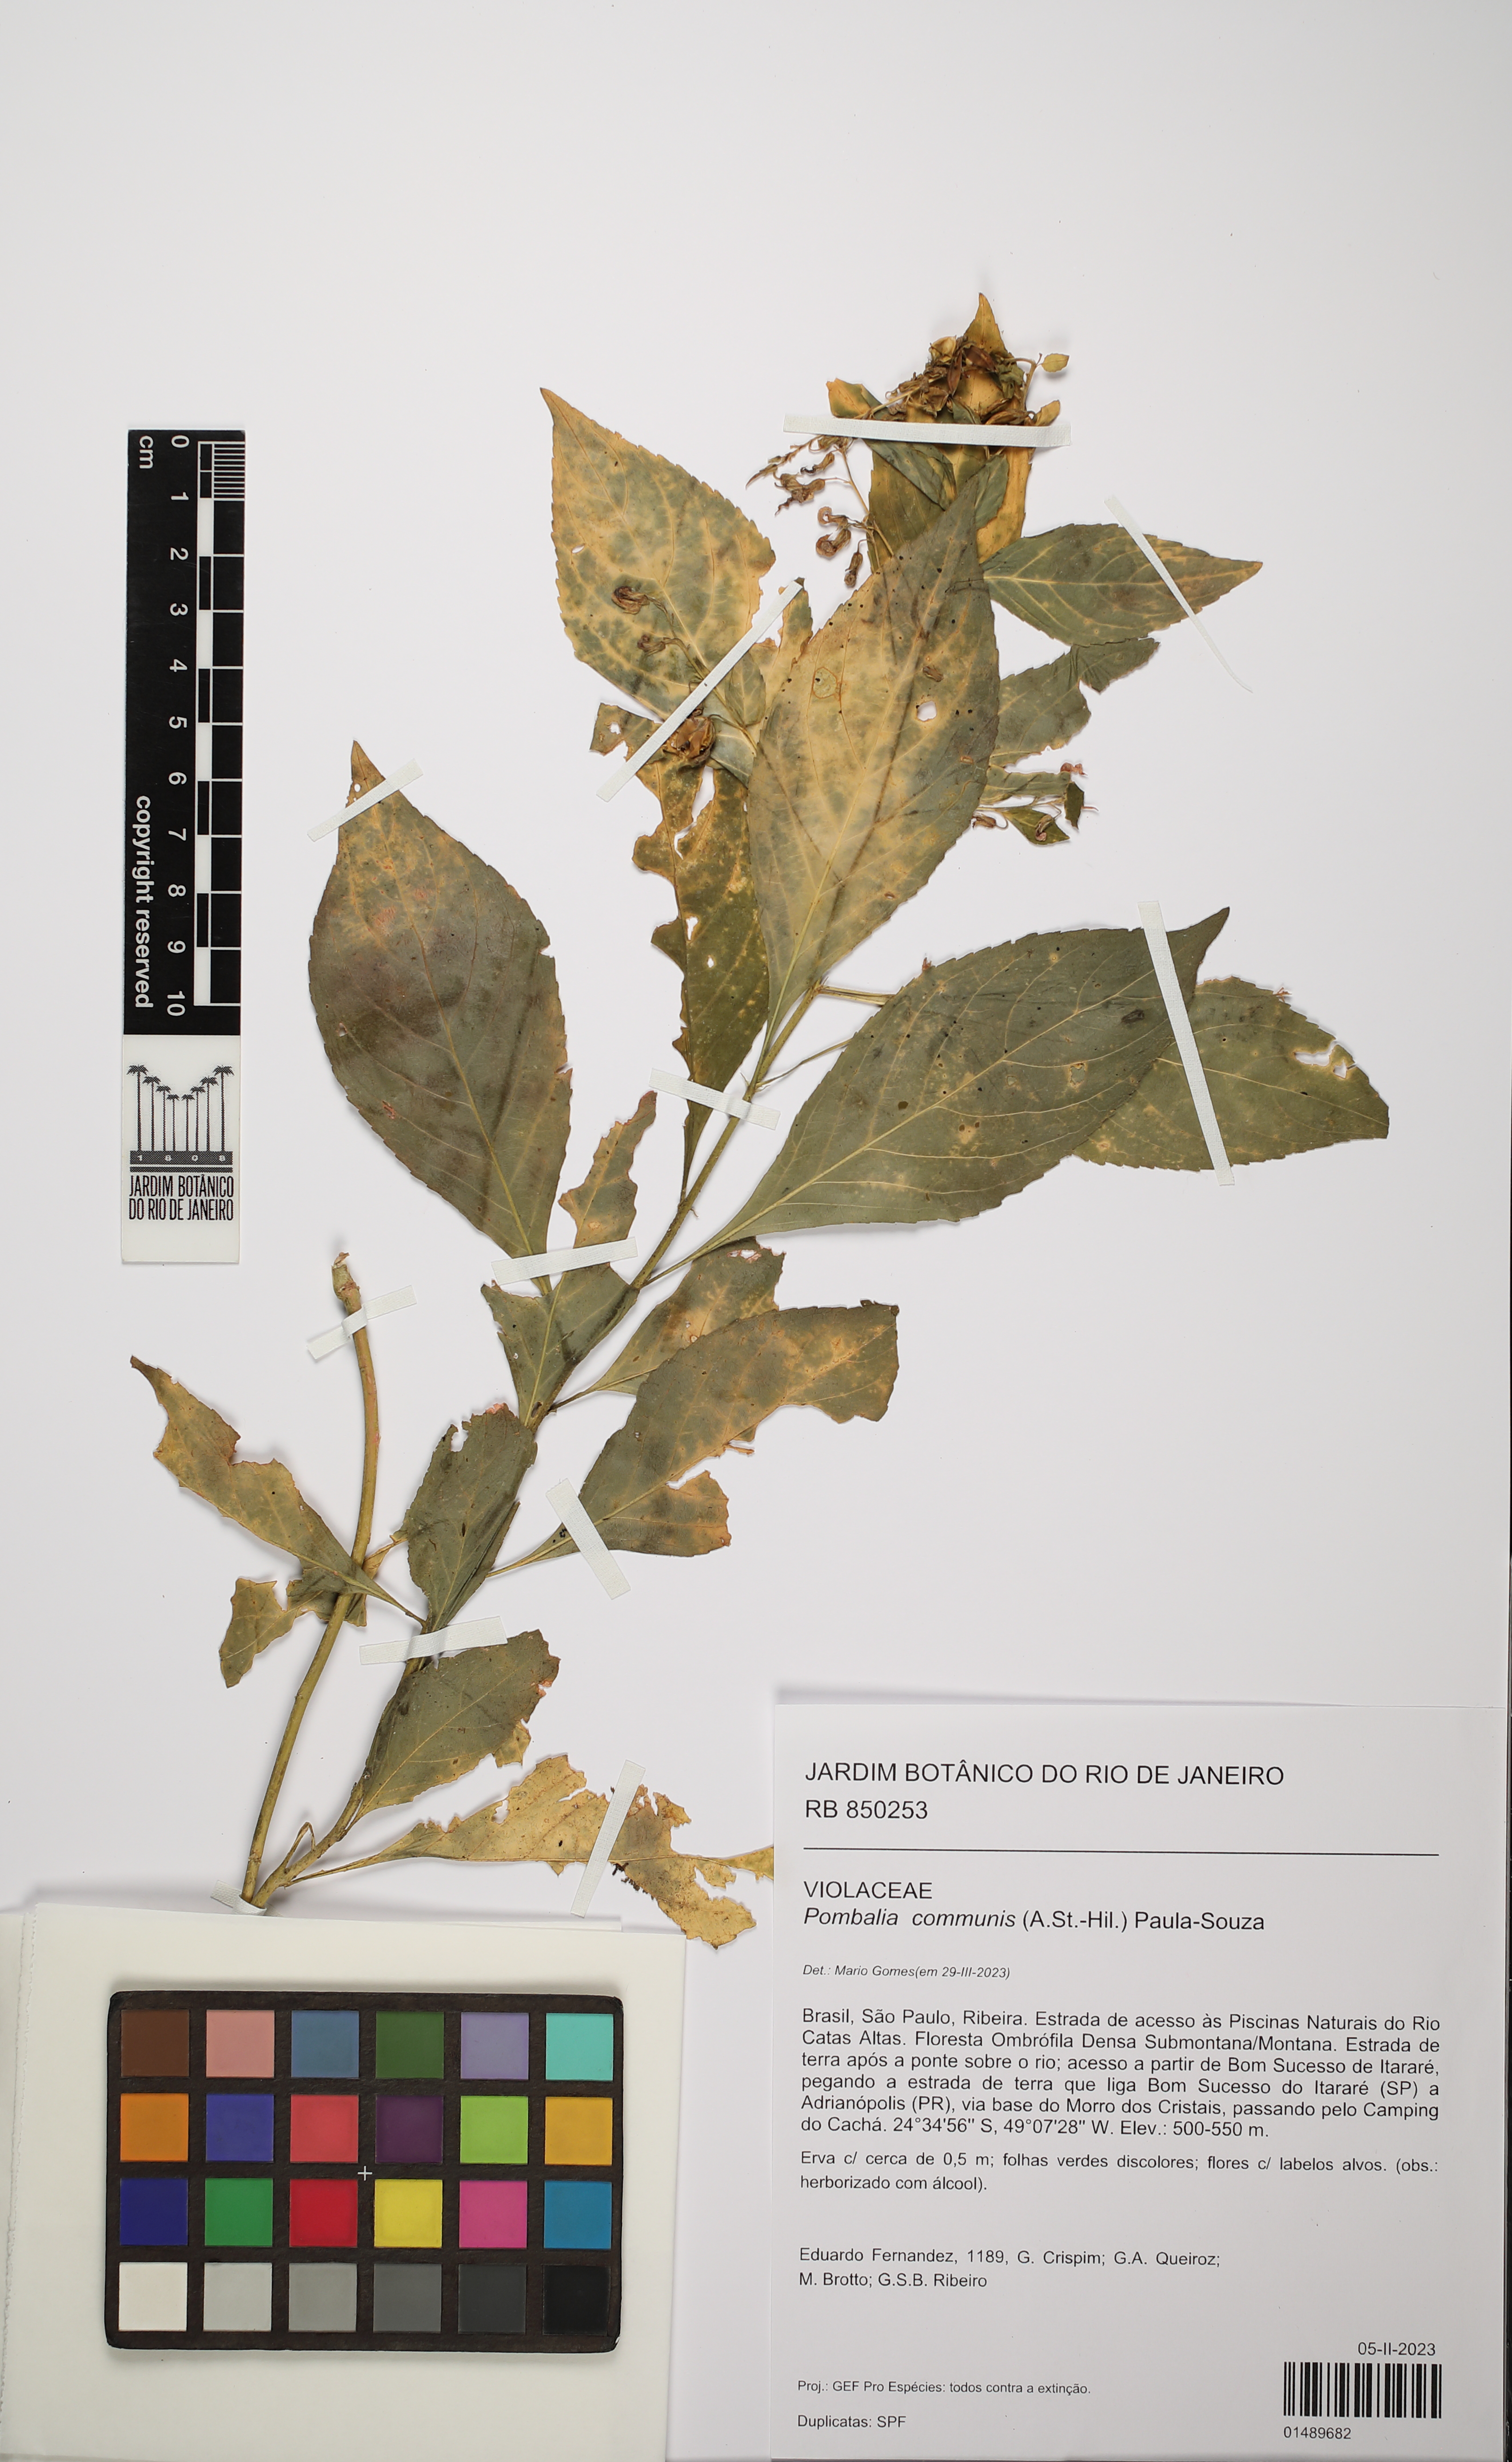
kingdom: Plantae
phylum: Tracheophyta
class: Magnoliopsida
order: Malpighiales
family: Violaceae
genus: Pombalia
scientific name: Pombalia communis
